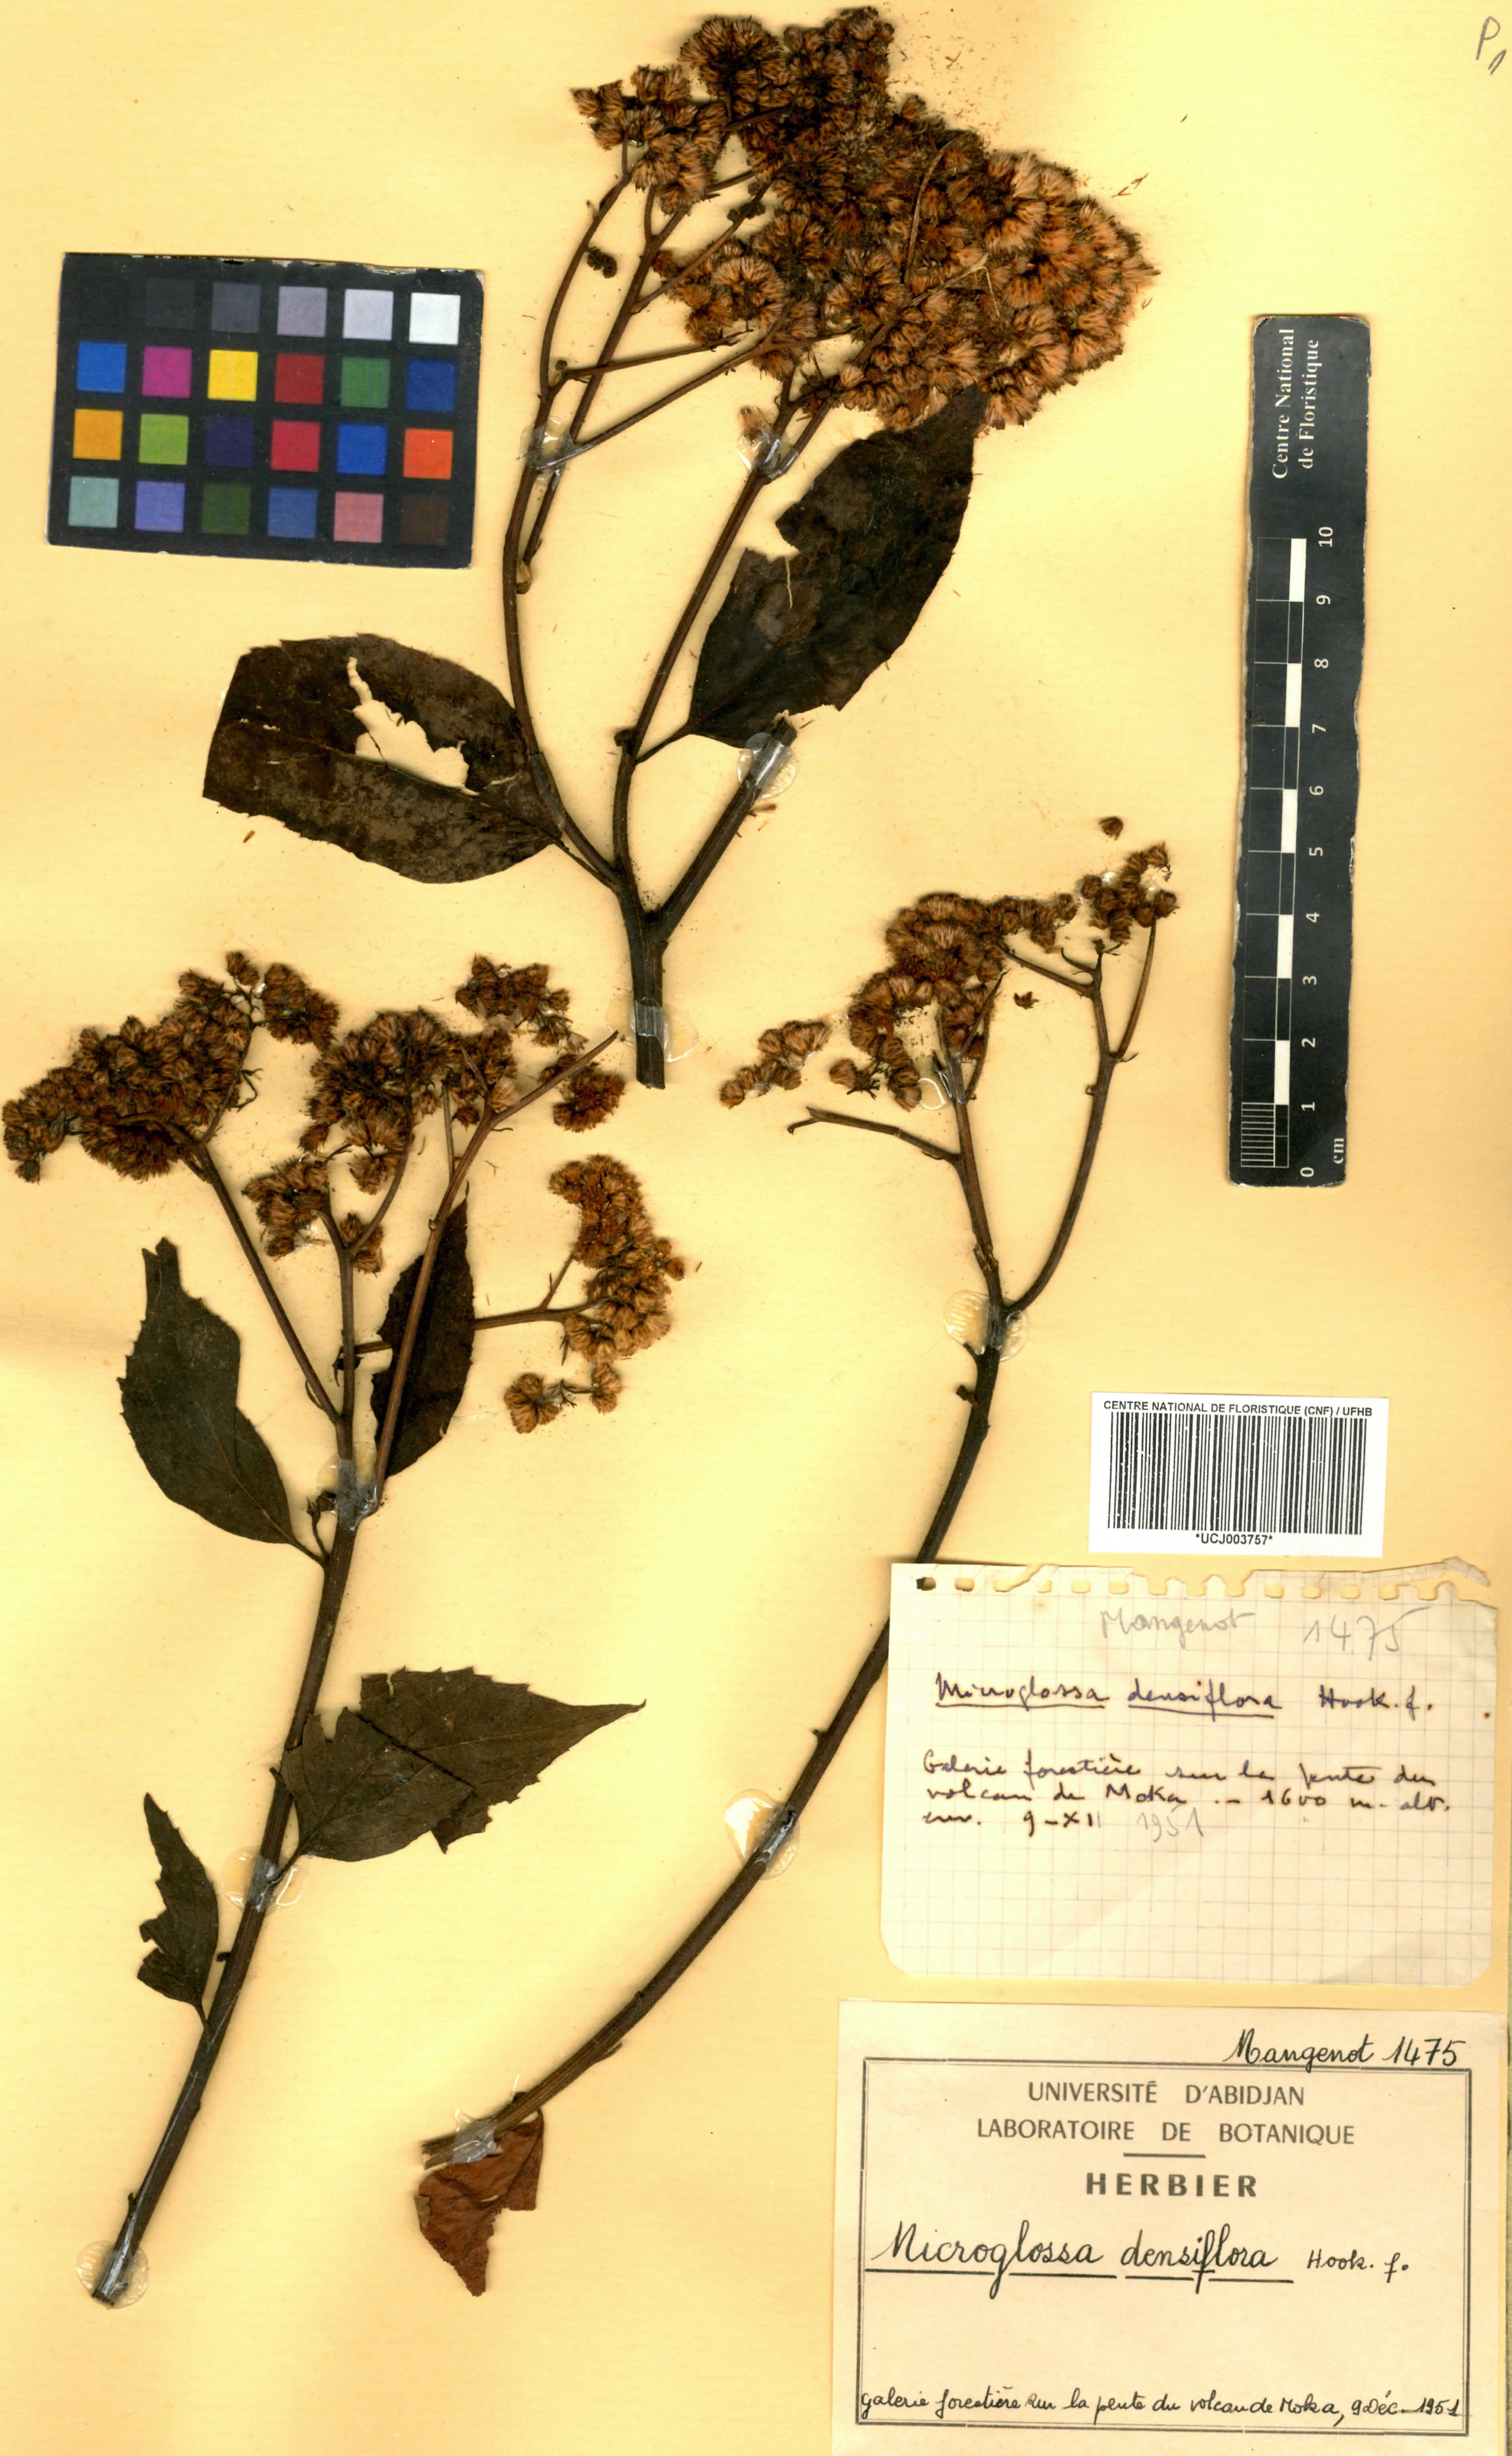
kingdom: Plantae
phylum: Tracheophyta
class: Magnoliopsida
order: Asterales
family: Asteraceae
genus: Microglossa
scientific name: Microglossa densiflora
